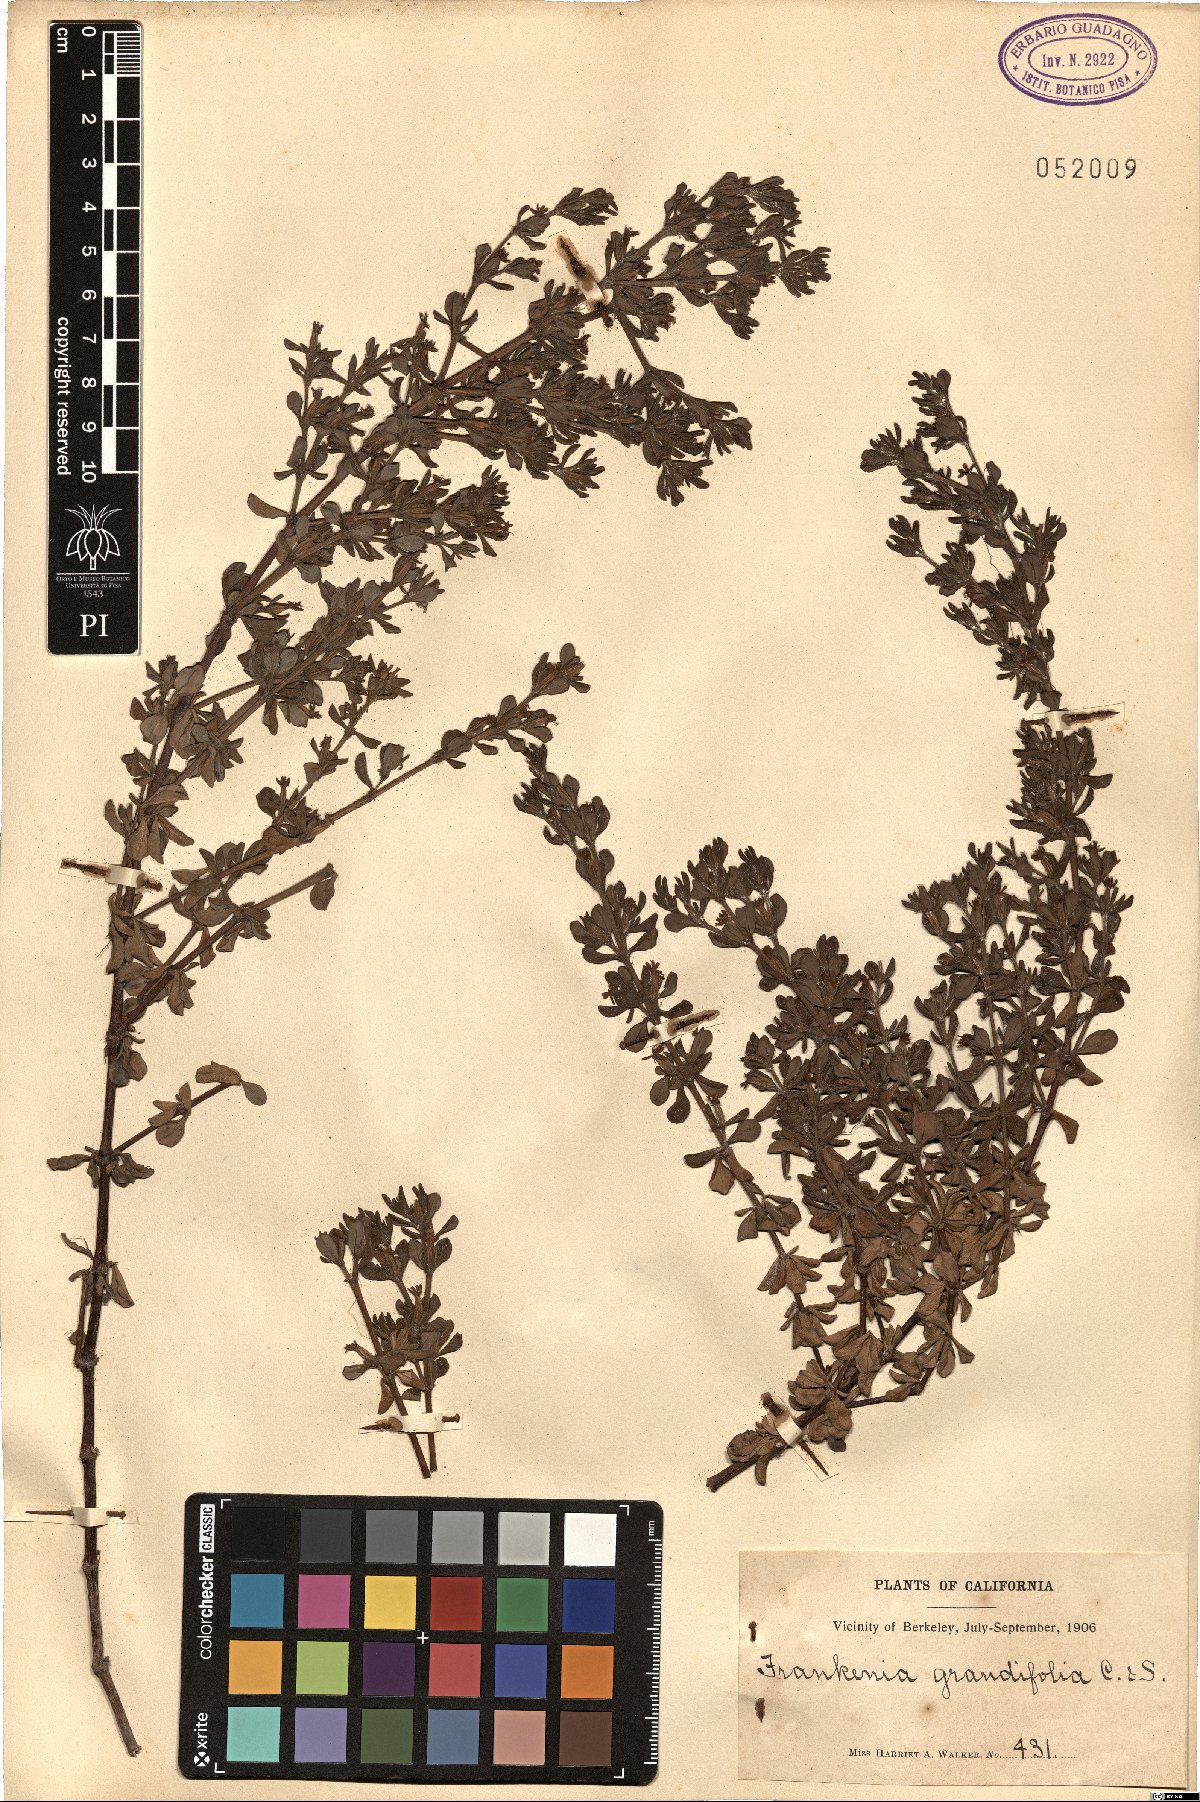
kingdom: Plantae
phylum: Tracheophyta
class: Magnoliopsida
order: Caryophyllales
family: Frankeniaceae
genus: Frankenia
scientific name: Frankenia salina
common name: Alkali seaheath
